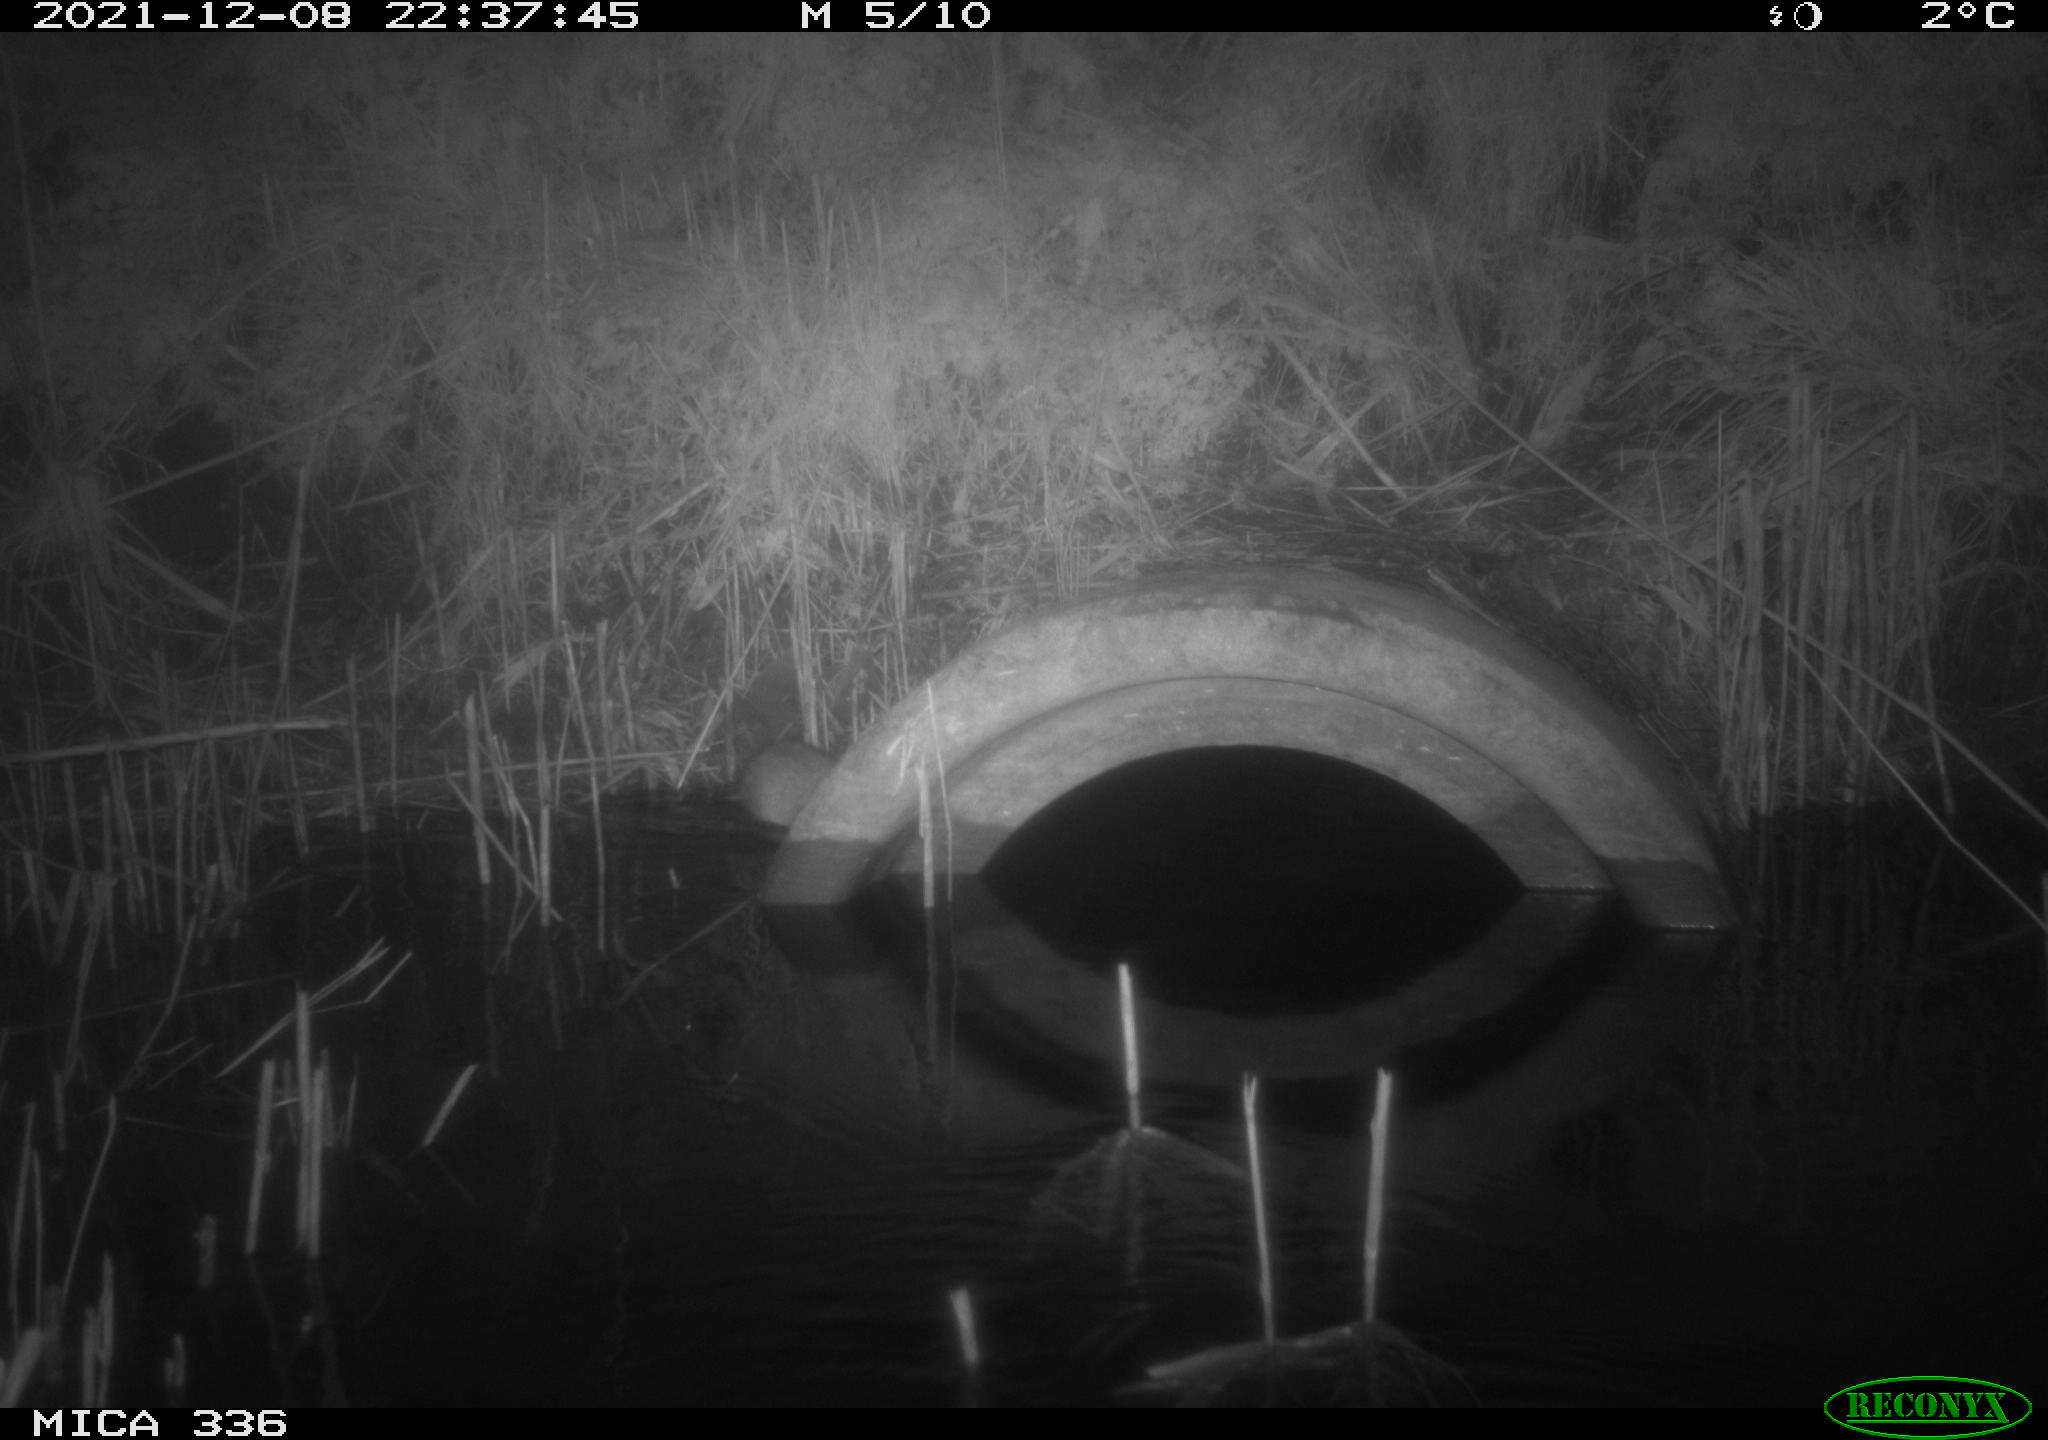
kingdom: Animalia
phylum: Chordata
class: Mammalia
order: Rodentia
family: Muridae
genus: Rattus
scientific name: Rattus norvegicus
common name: Brown rat
